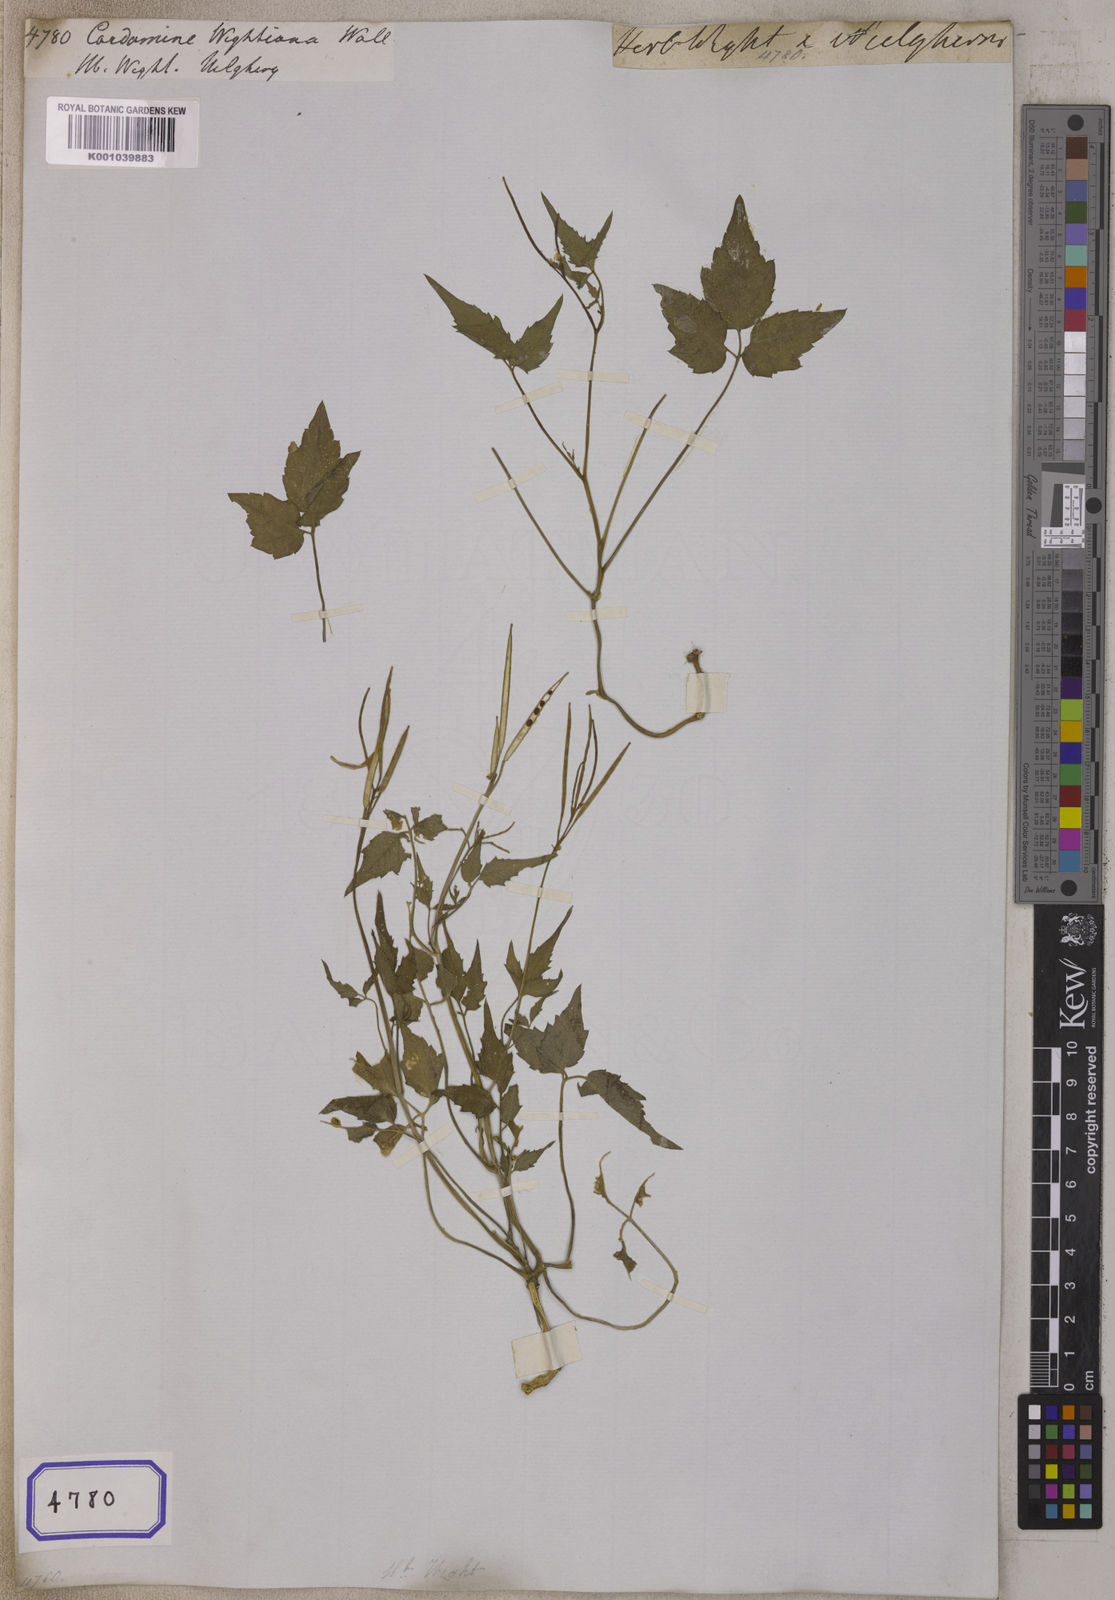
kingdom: Plantae
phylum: Tracheophyta
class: Magnoliopsida
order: Brassicales
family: Brassicaceae
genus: Cardamine
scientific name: Cardamine africana
